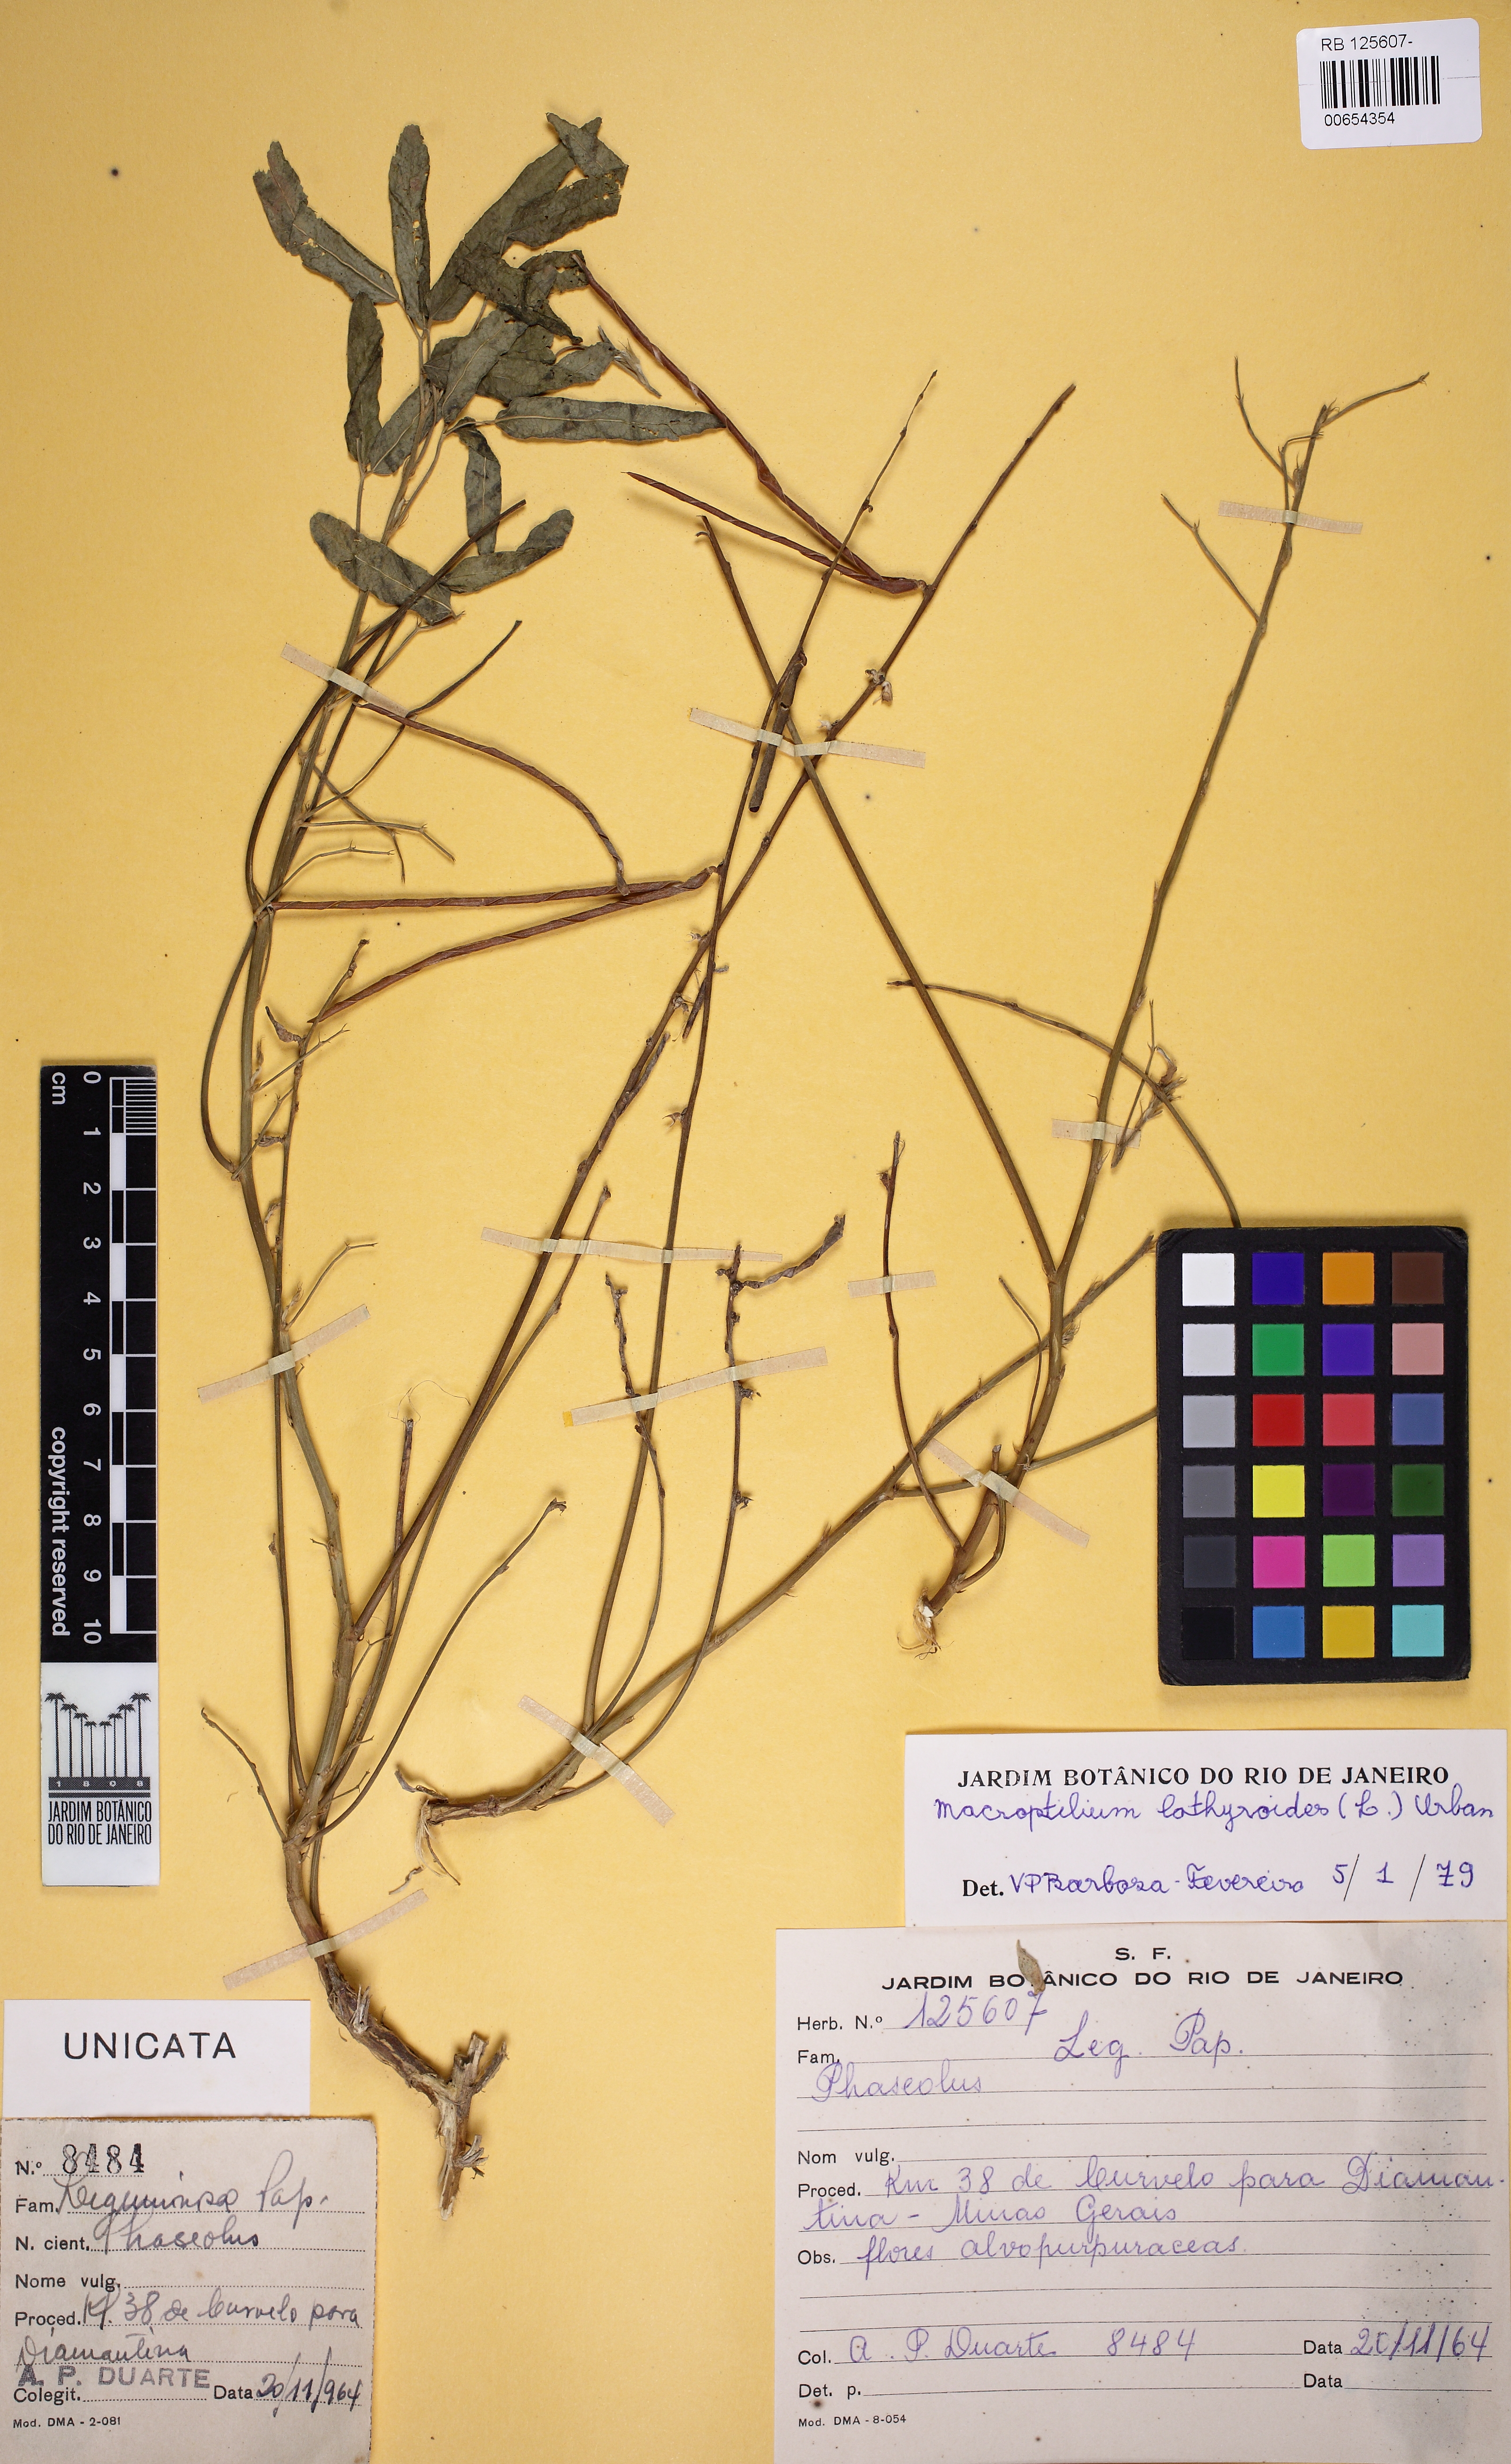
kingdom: Plantae
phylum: Tracheophyta
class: Magnoliopsida
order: Fabales
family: Fabaceae
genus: Macroptilium
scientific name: Macroptilium lathyroides
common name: Wild bushbean
